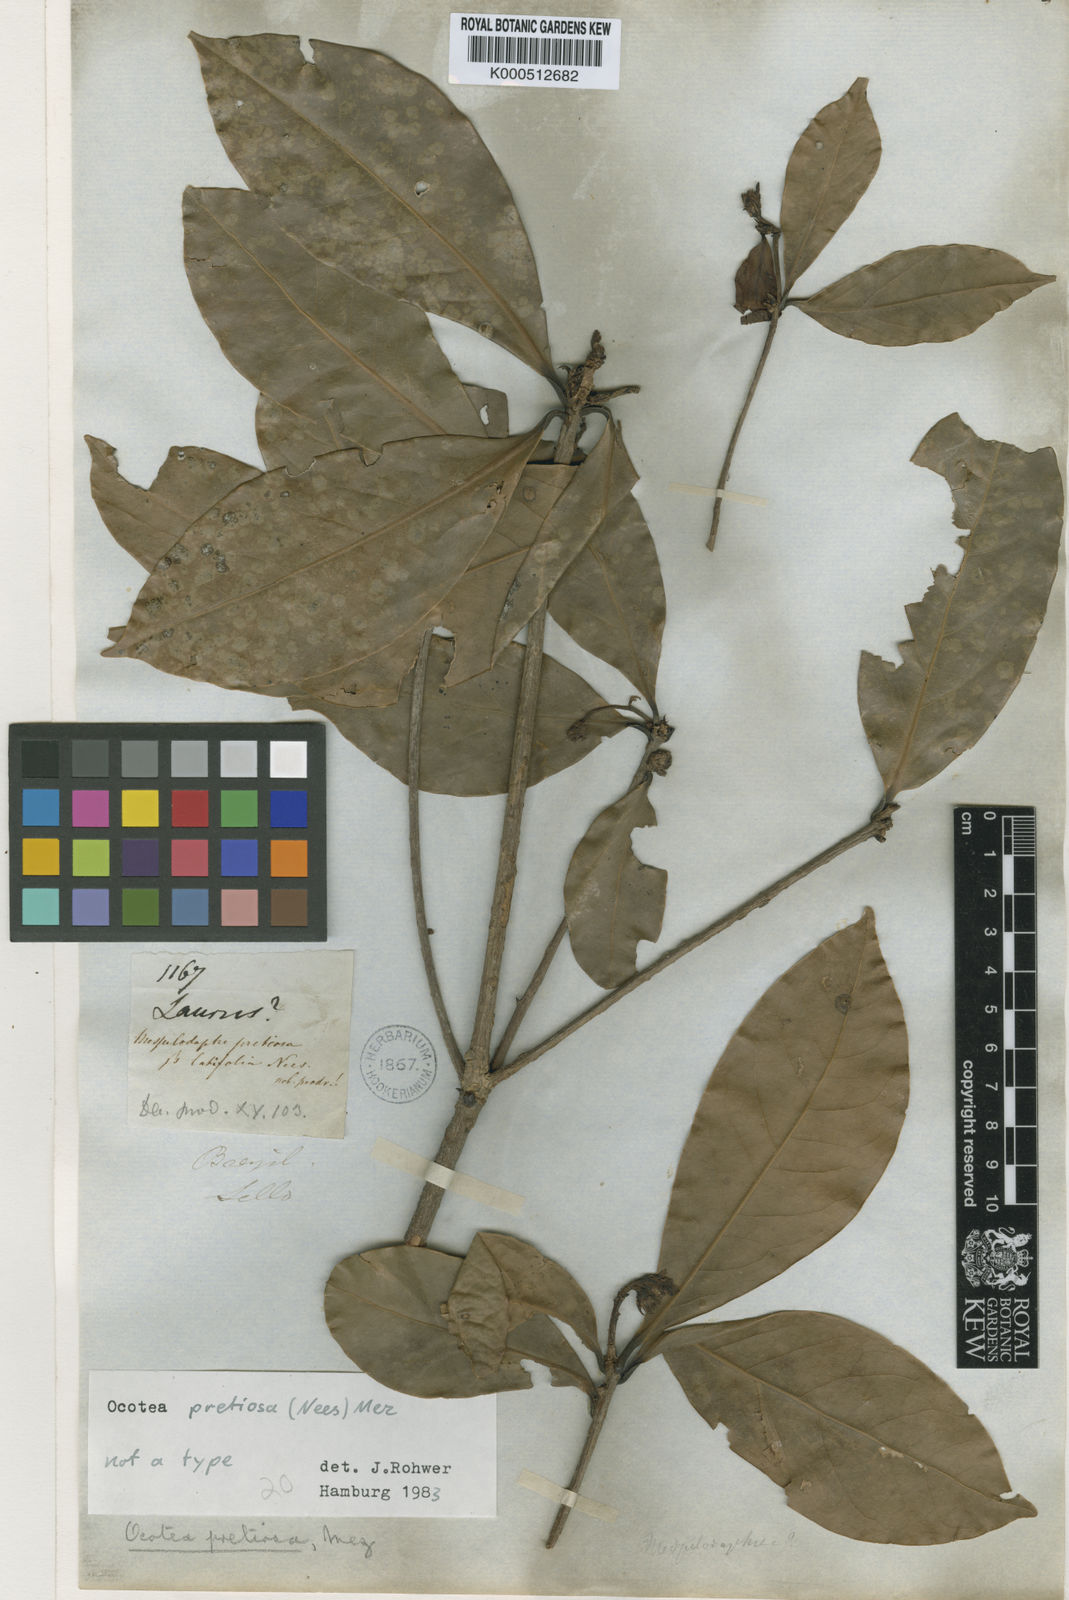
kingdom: Plantae
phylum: Tracheophyta
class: Magnoliopsida
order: Laurales
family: Lauraceae
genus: Mespilodaphne
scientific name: Mespilodaphne quixos
